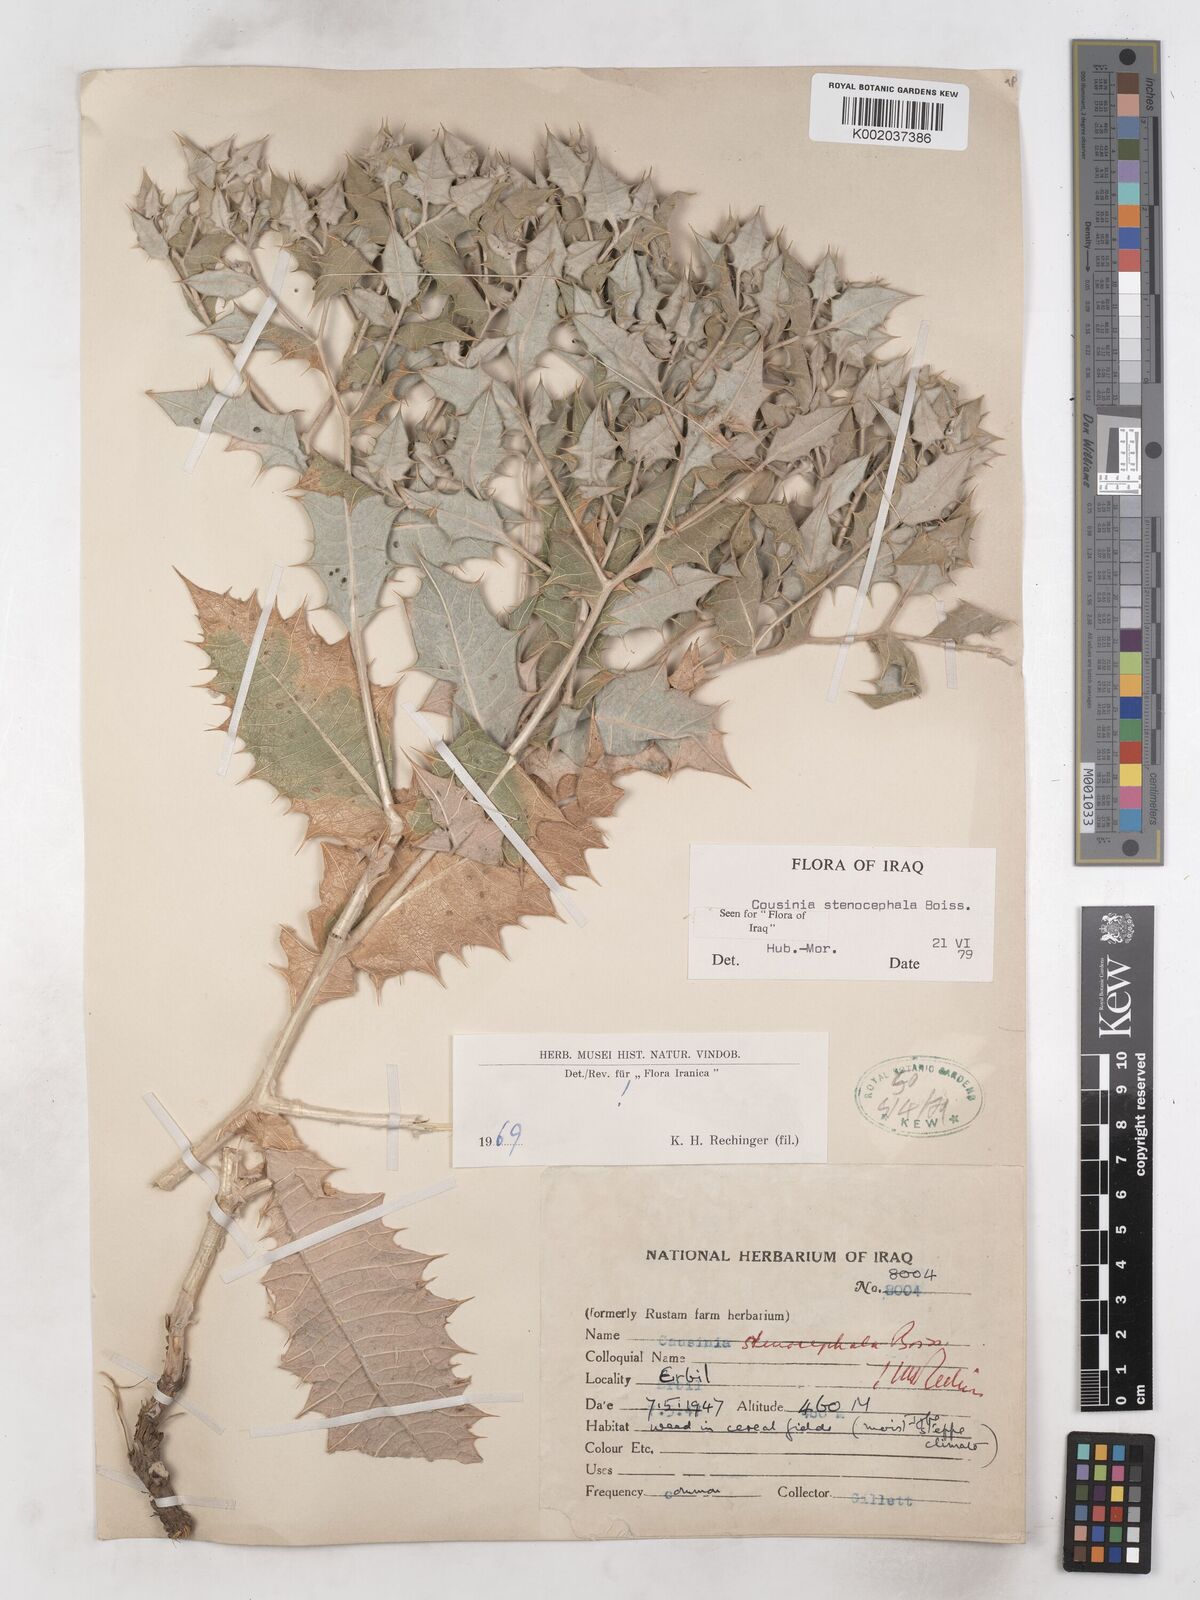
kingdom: Plantae
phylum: Tracheophyta
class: Magnoliopsida
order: Asterales
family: Asteraceae
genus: Cousinia
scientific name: Cousinia stenocephala
